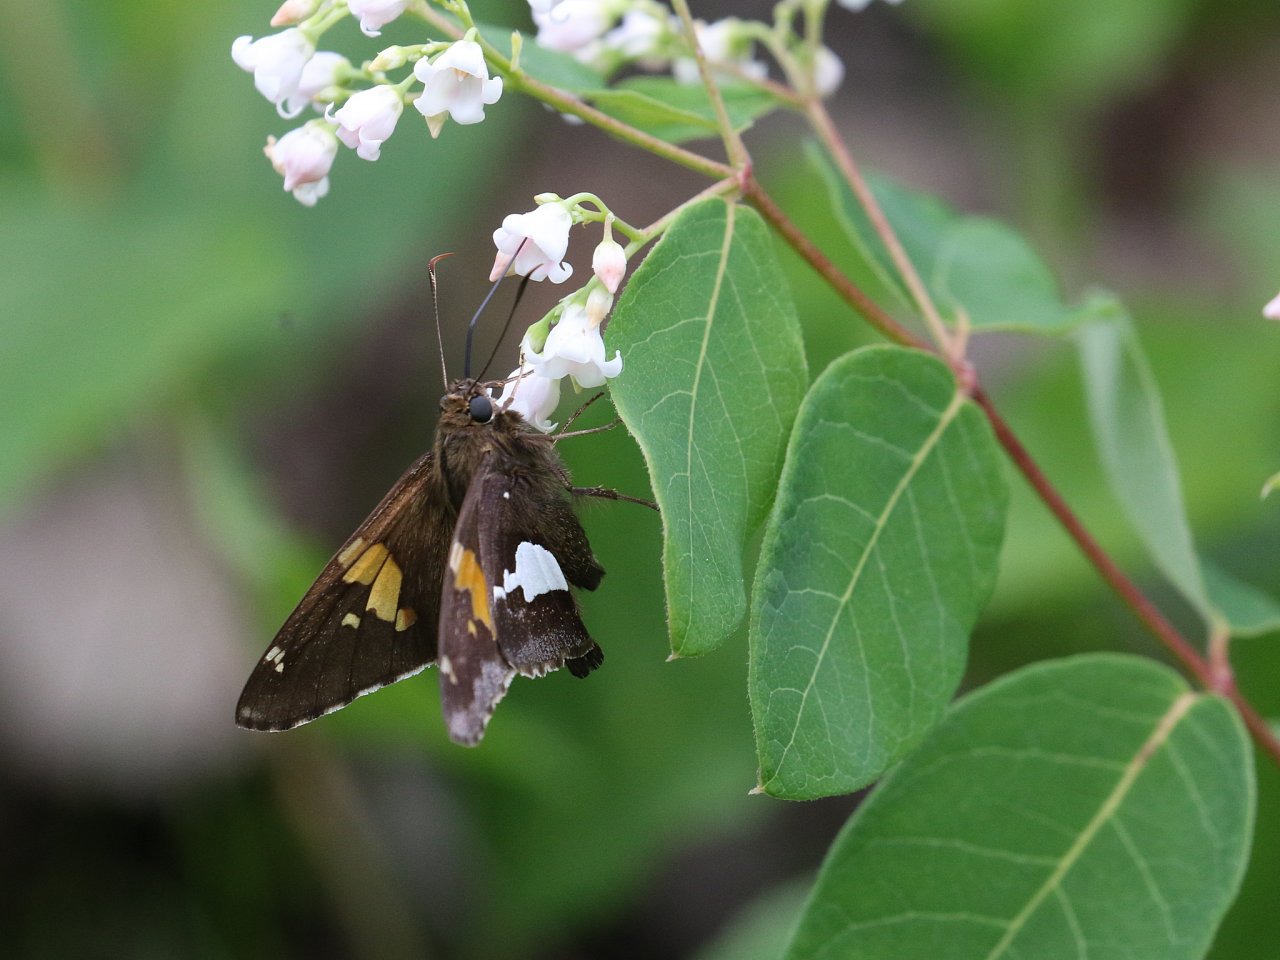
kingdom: Animalia
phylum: Arthropoda
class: Insecta
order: Lepidoptera
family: Hesperiidae
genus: Epargyreus
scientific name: Epargyreus clarus
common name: Silver-spotted Skipper
